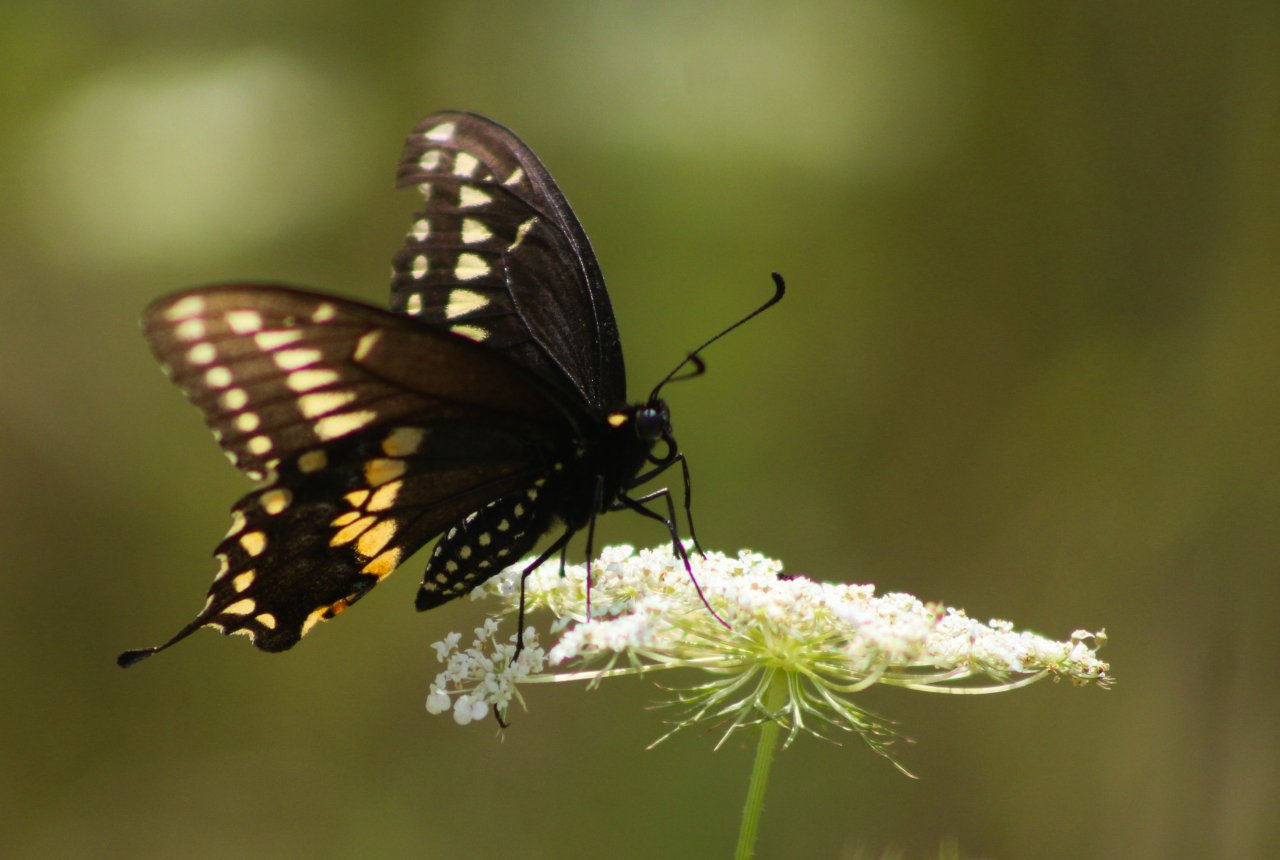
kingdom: Animalia
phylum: Arthropoda
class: Insecta
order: Lepidoptera
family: Papilionidae
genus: Papilio
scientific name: Papilio polyxenes
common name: Black Swallowtail
